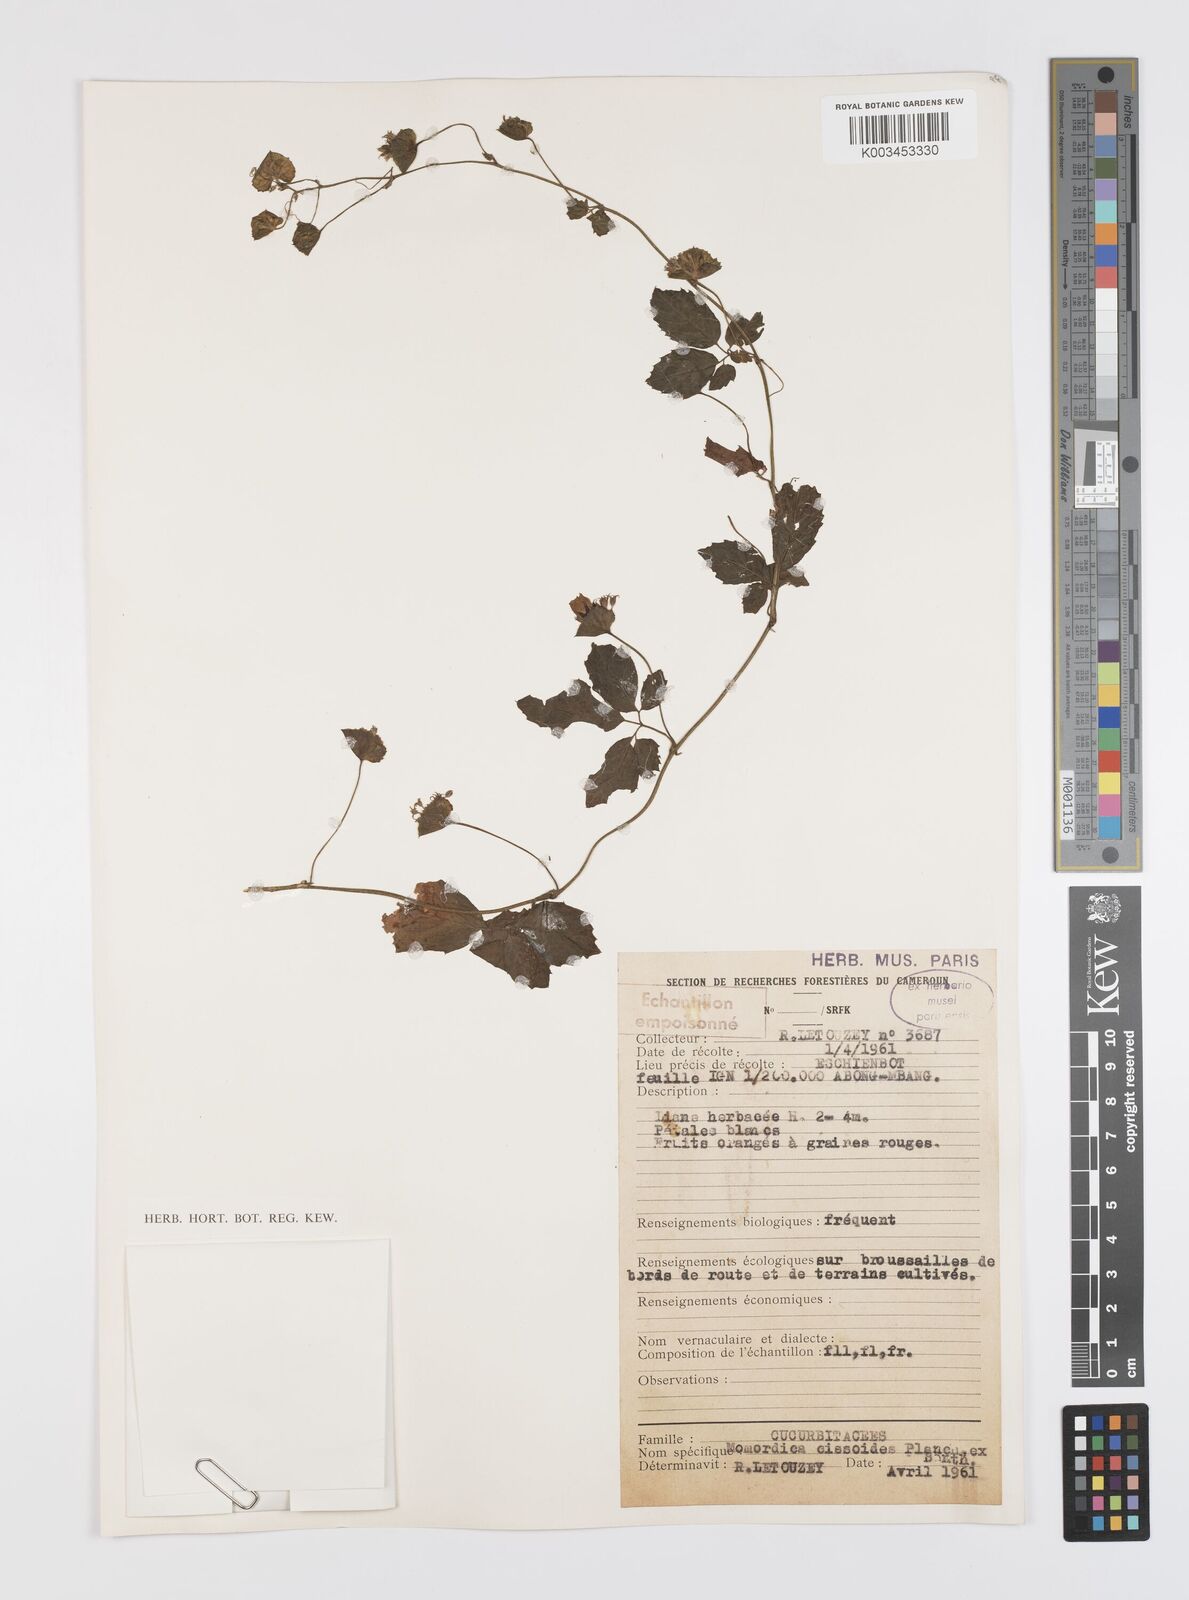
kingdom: Plantae
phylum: Tracheophyta
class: Magnoliopsida
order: Cucurbitales
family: Cucurbitaceae
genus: Momordica
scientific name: Momordica cissoides
